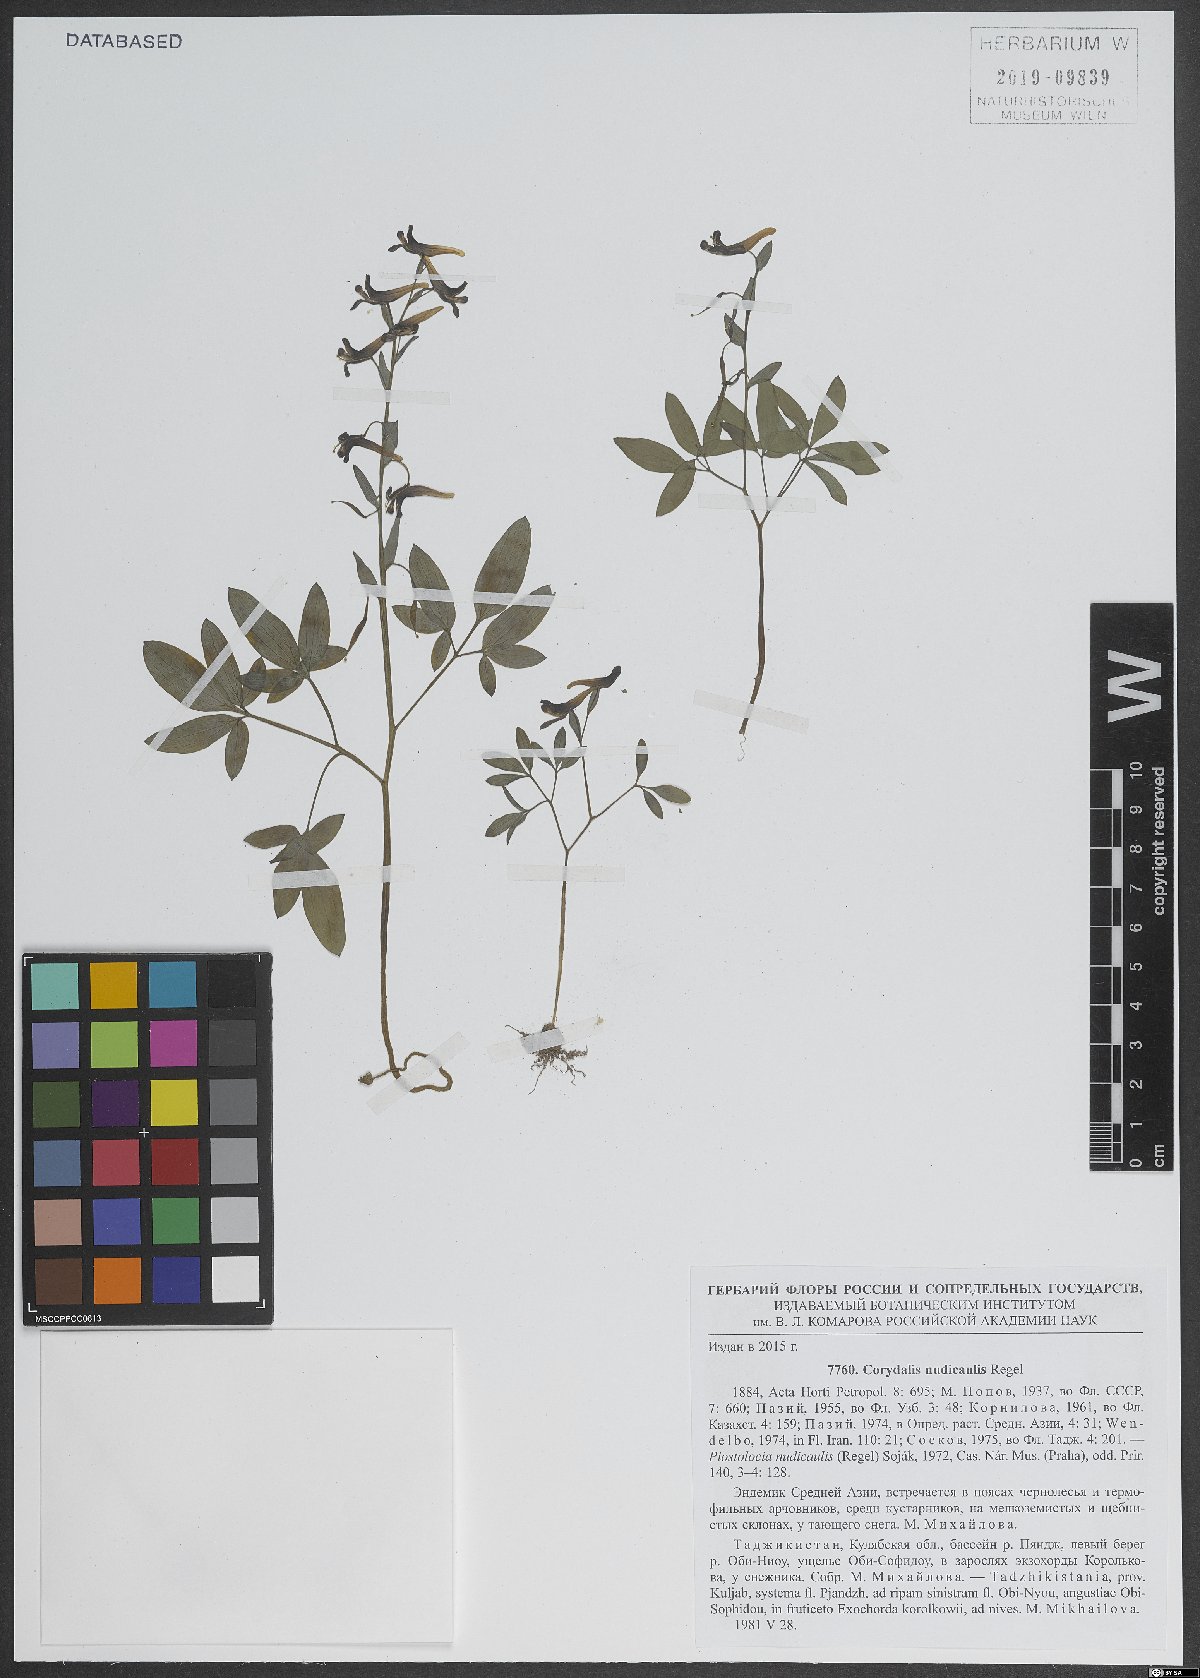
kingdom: Plantae
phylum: Tracheophyta
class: Magnoliopsida
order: Ranunculales
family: Papaveraceae
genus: Corydalis
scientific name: Corydalis nudicaulis
